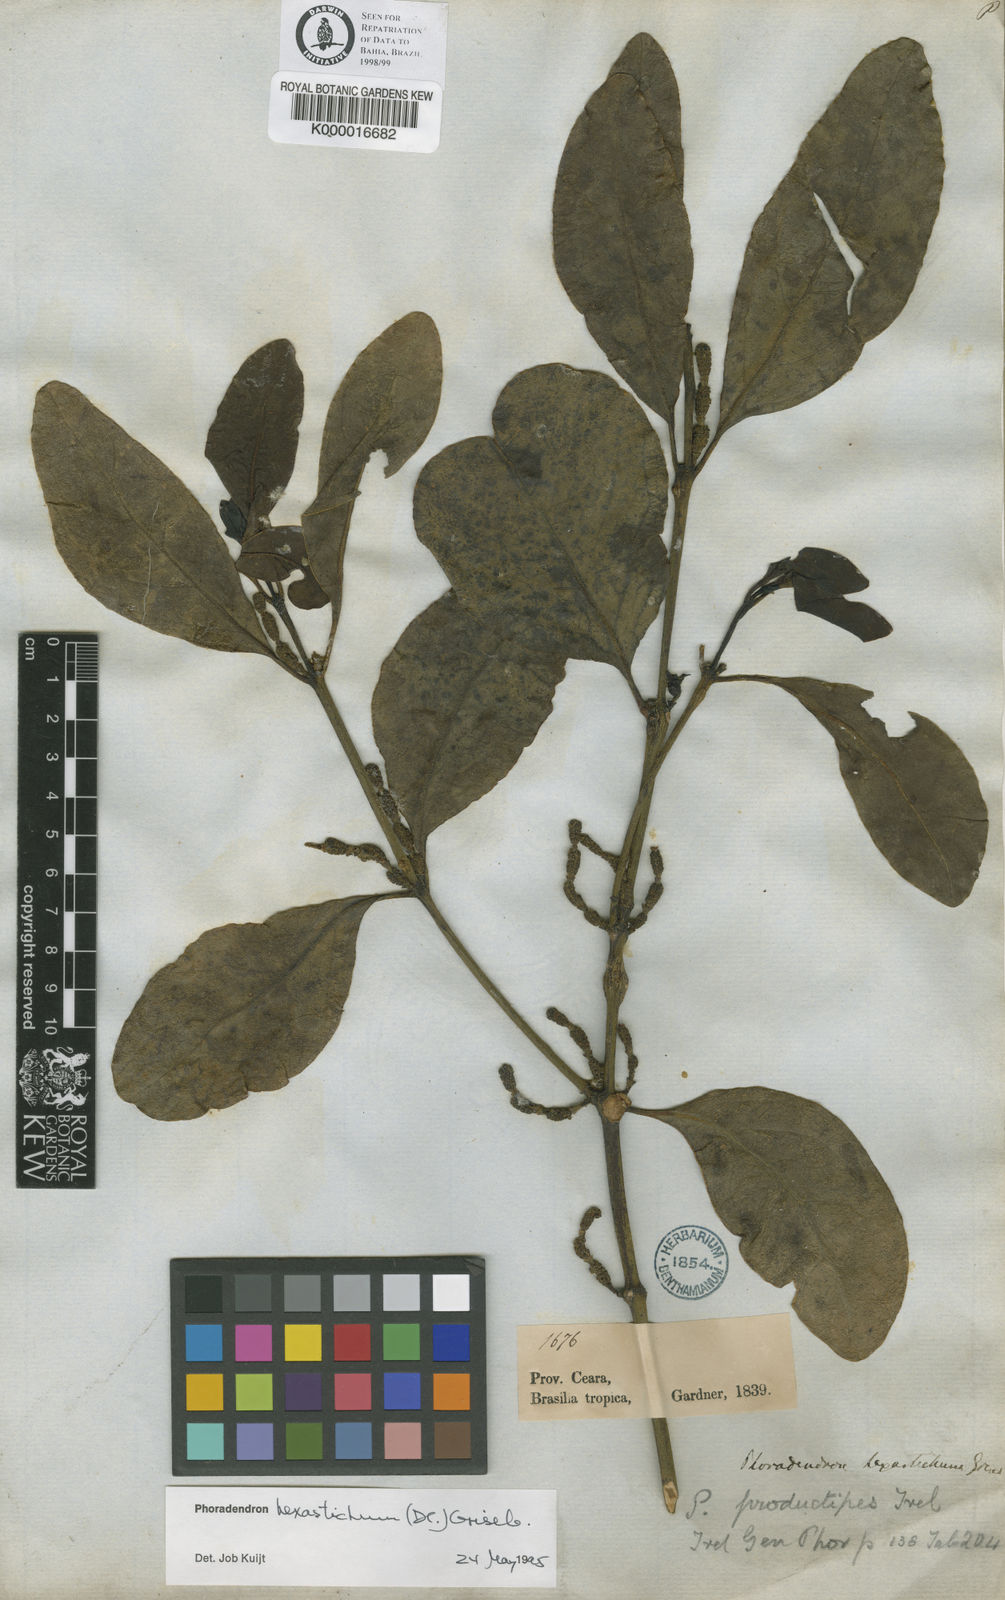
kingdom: Plantae
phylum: Tracheophyta
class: Magnoliopsida
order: Santalales
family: Viscaceae
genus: Phoradendron
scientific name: Phoradendron hexastichum
